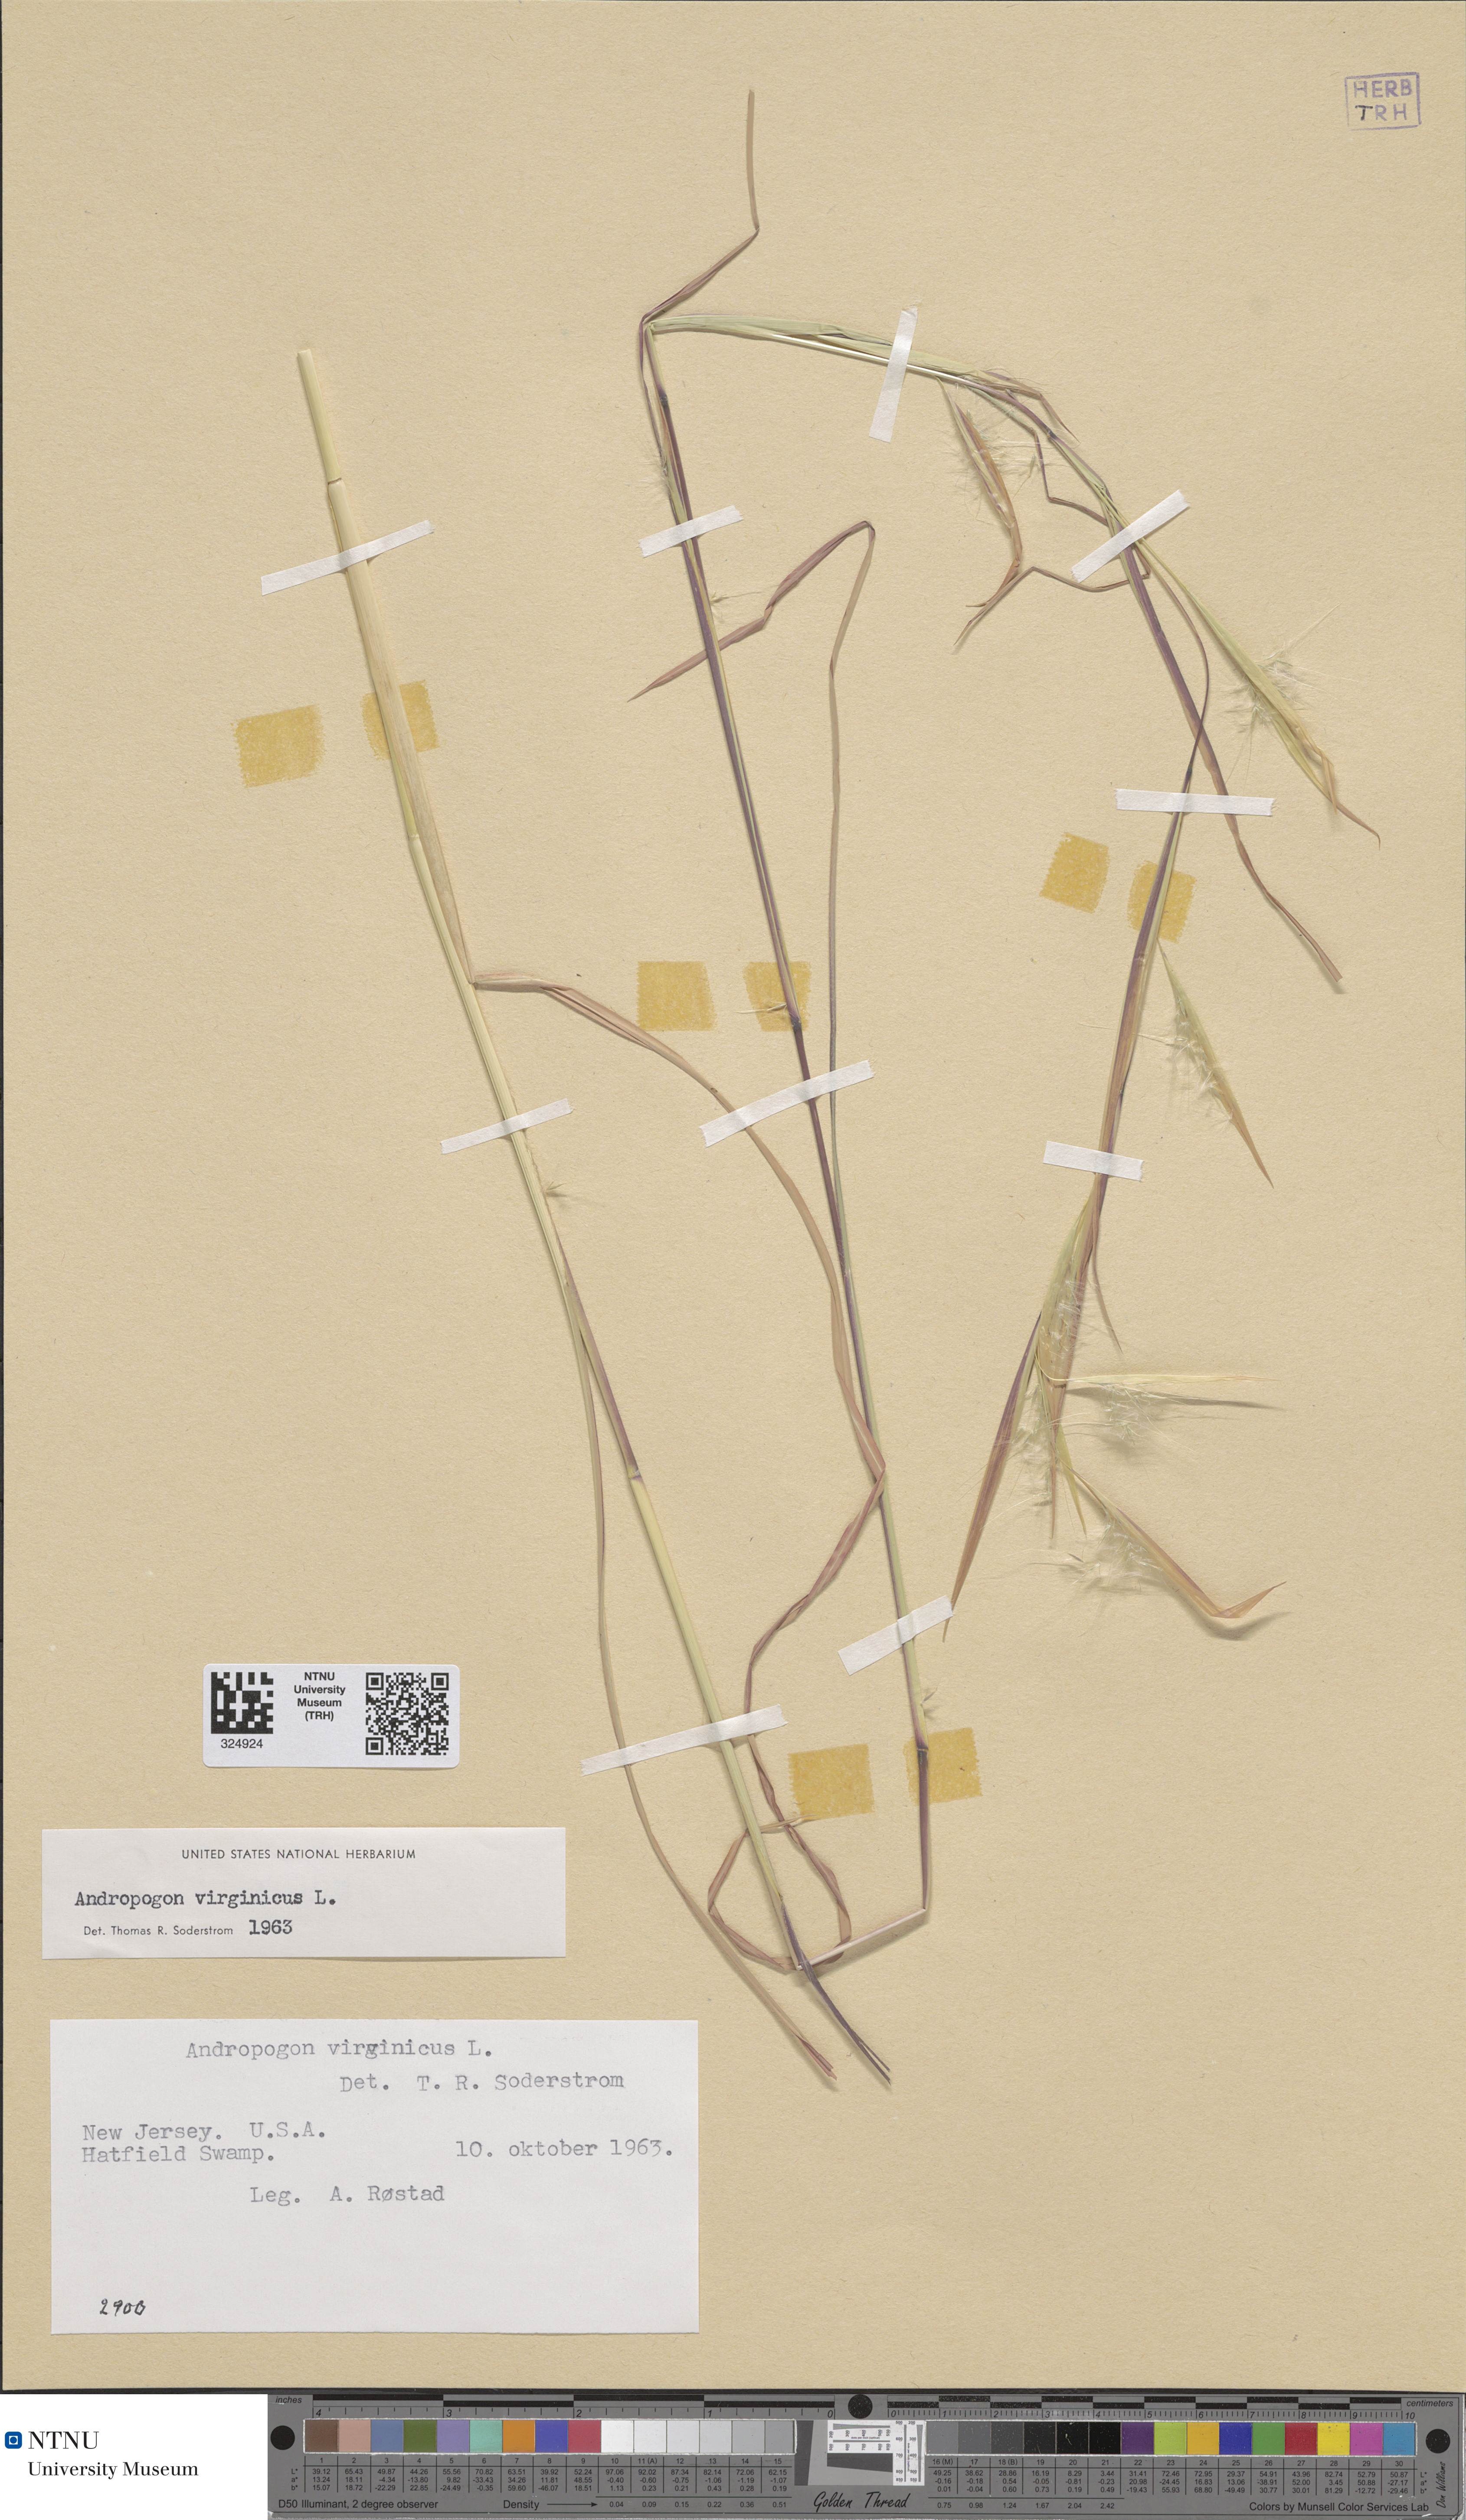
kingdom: Plantae
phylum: Tracheophyta
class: Liliopsida
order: Poales
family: Poaceae
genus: Andropogon
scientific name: Andropogon virginicus
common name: Broomsedge bluestem
